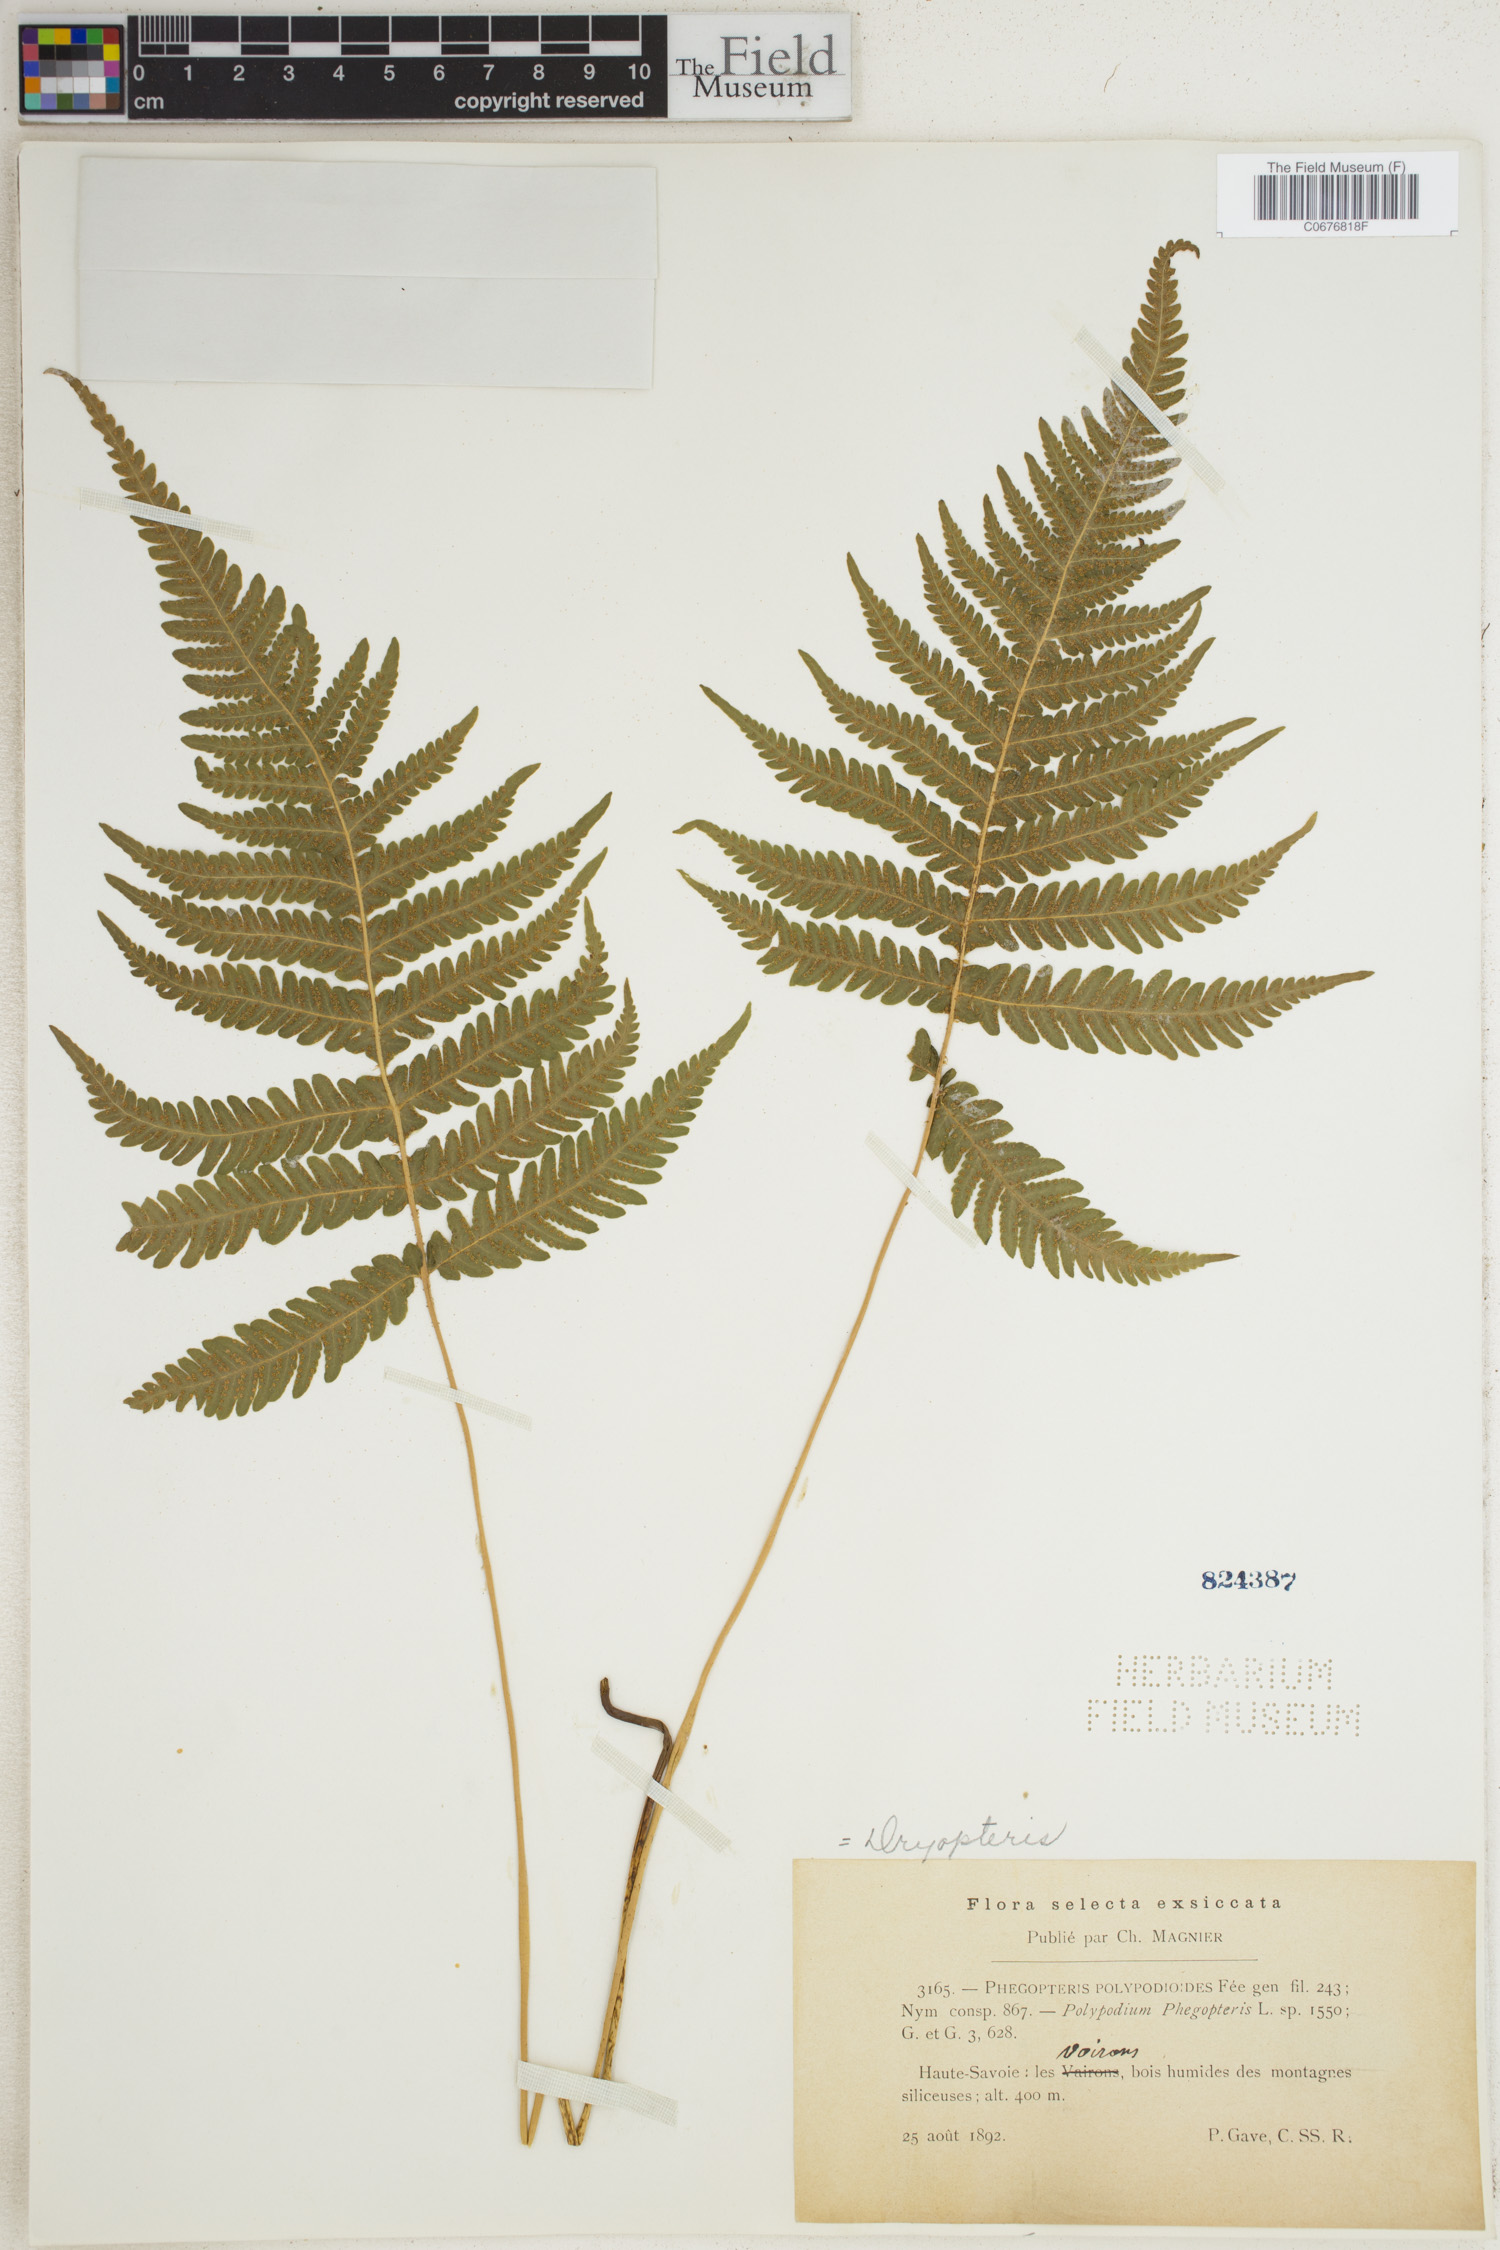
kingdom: Plantae
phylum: Tracheophyta
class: Polypodiopsida
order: Polypodiales
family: Thelypteridaceae
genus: Phegopteris
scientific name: Phegopteris connectilis
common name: Beech fern
